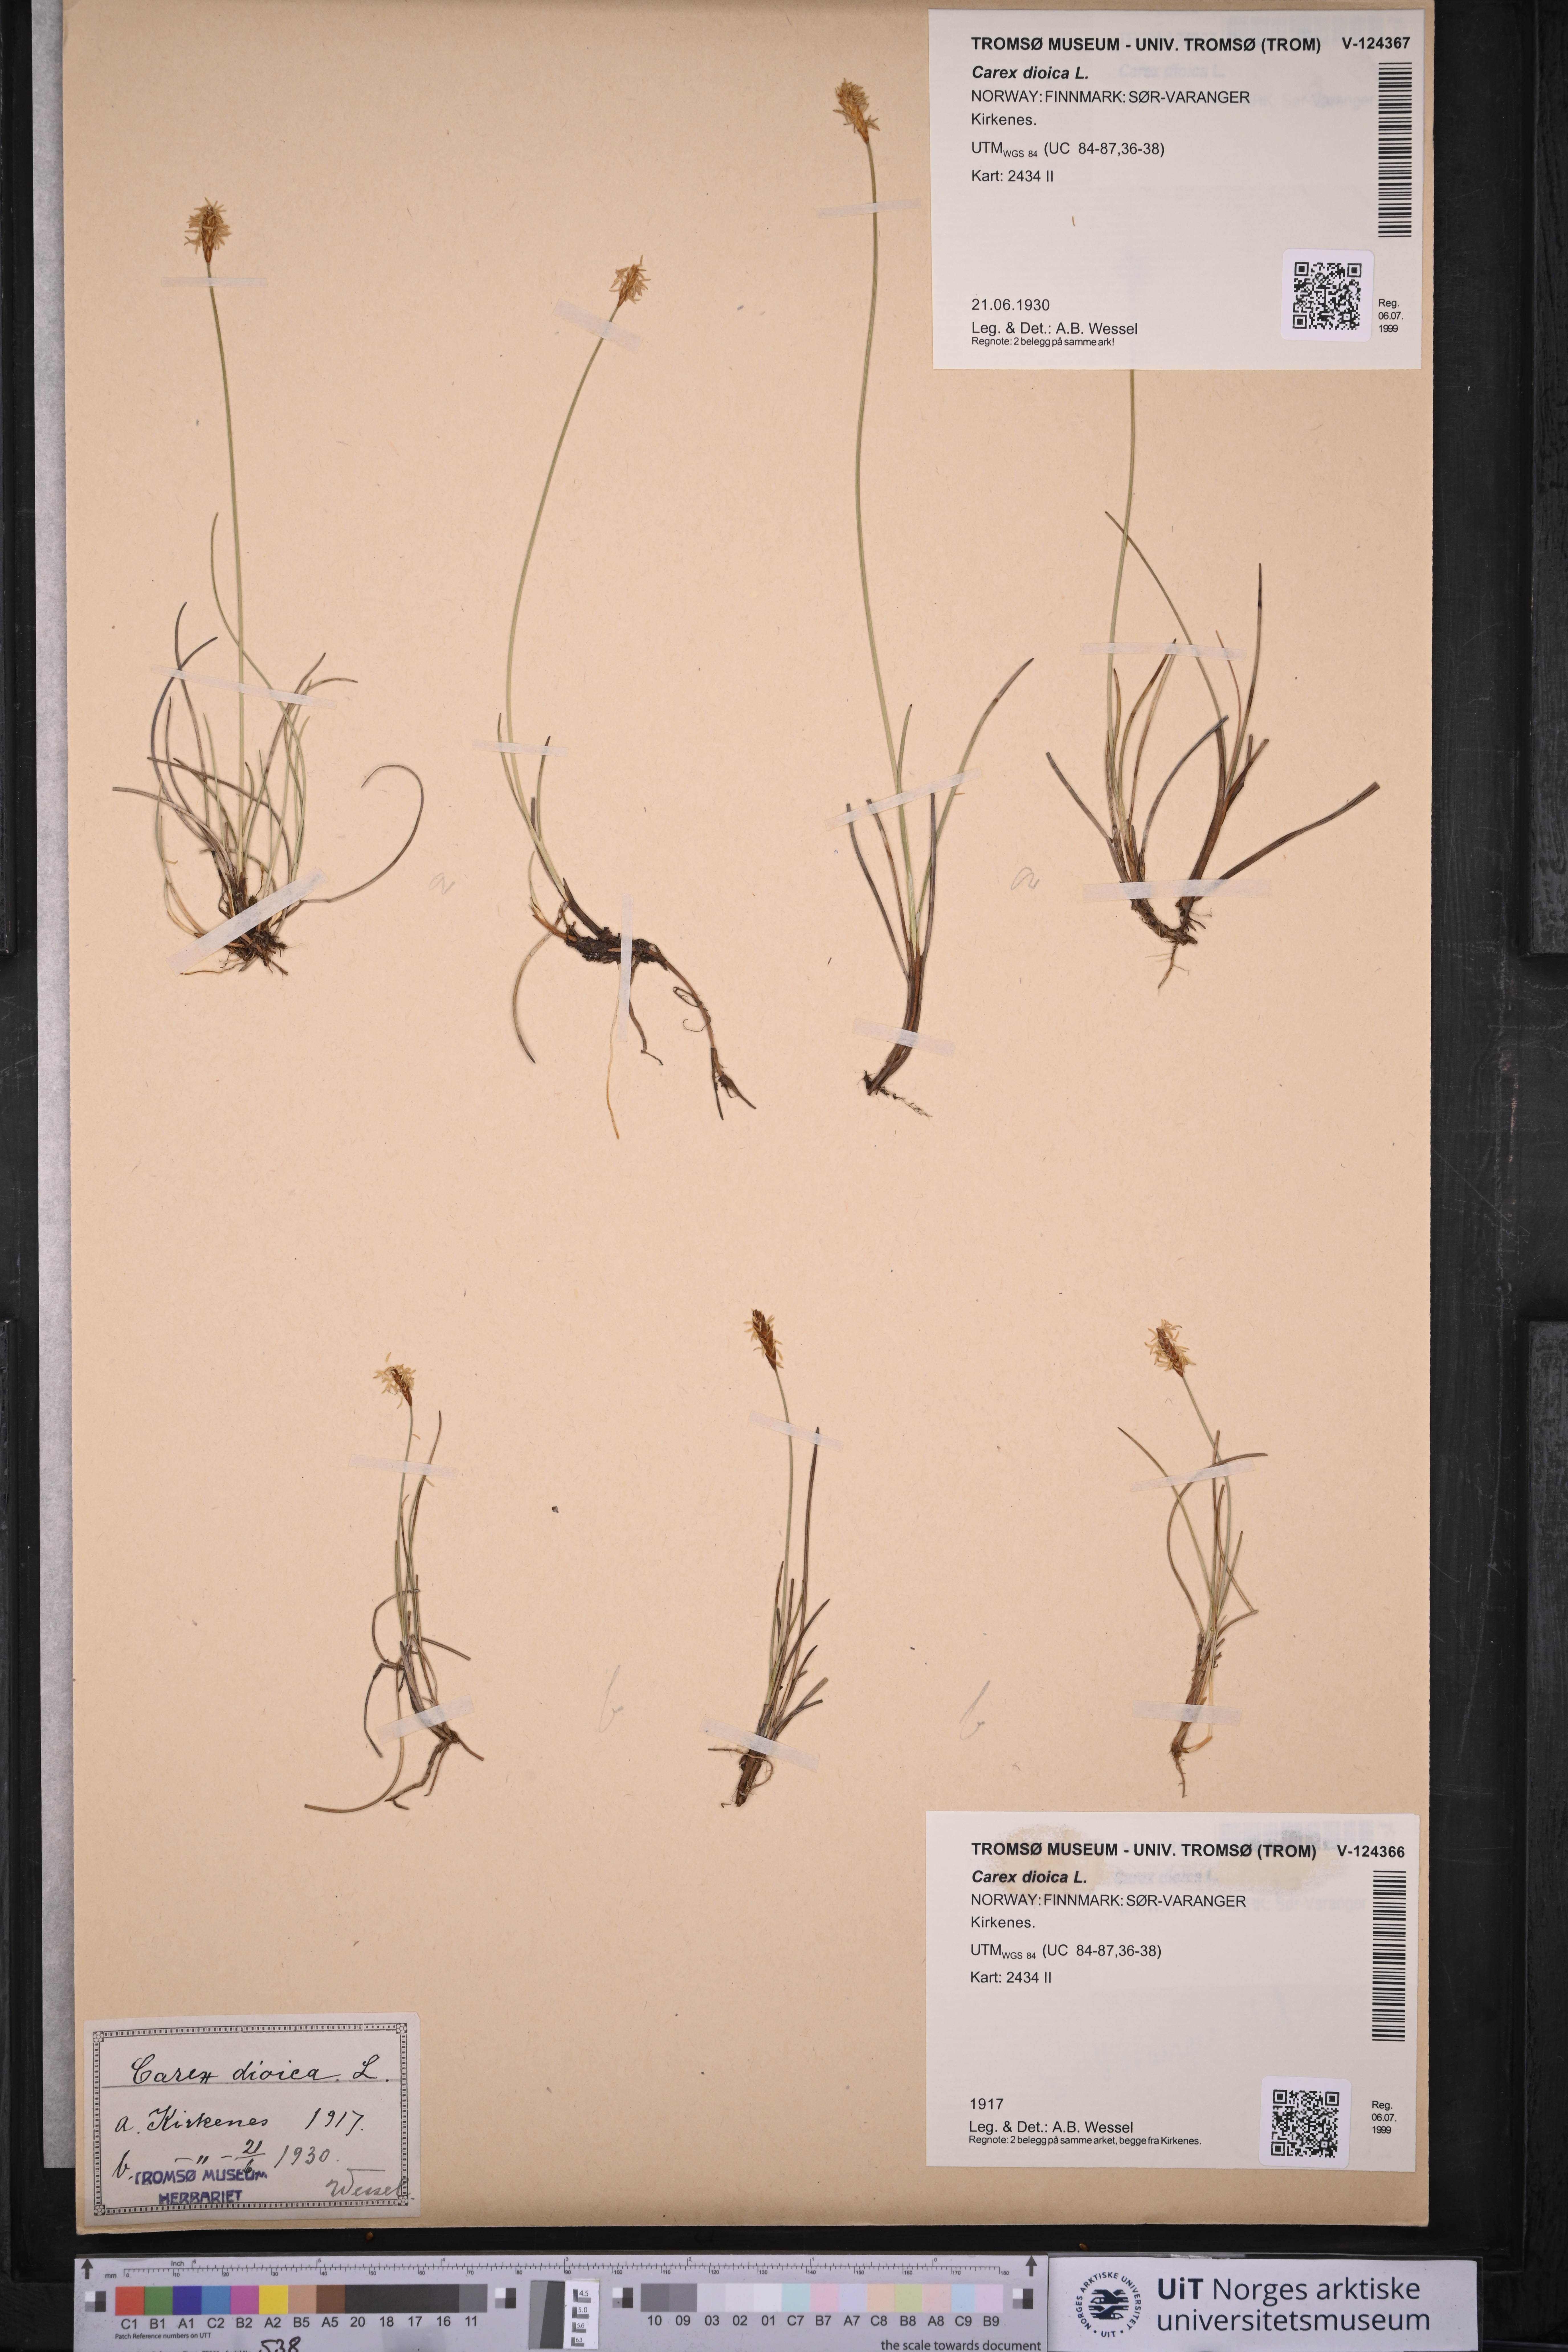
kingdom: Plantae
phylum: Tracheophyta
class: Liliopsida
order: Poales
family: Cyperaceae
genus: Carex
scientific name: Carex dioica
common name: Dioecious sedge
